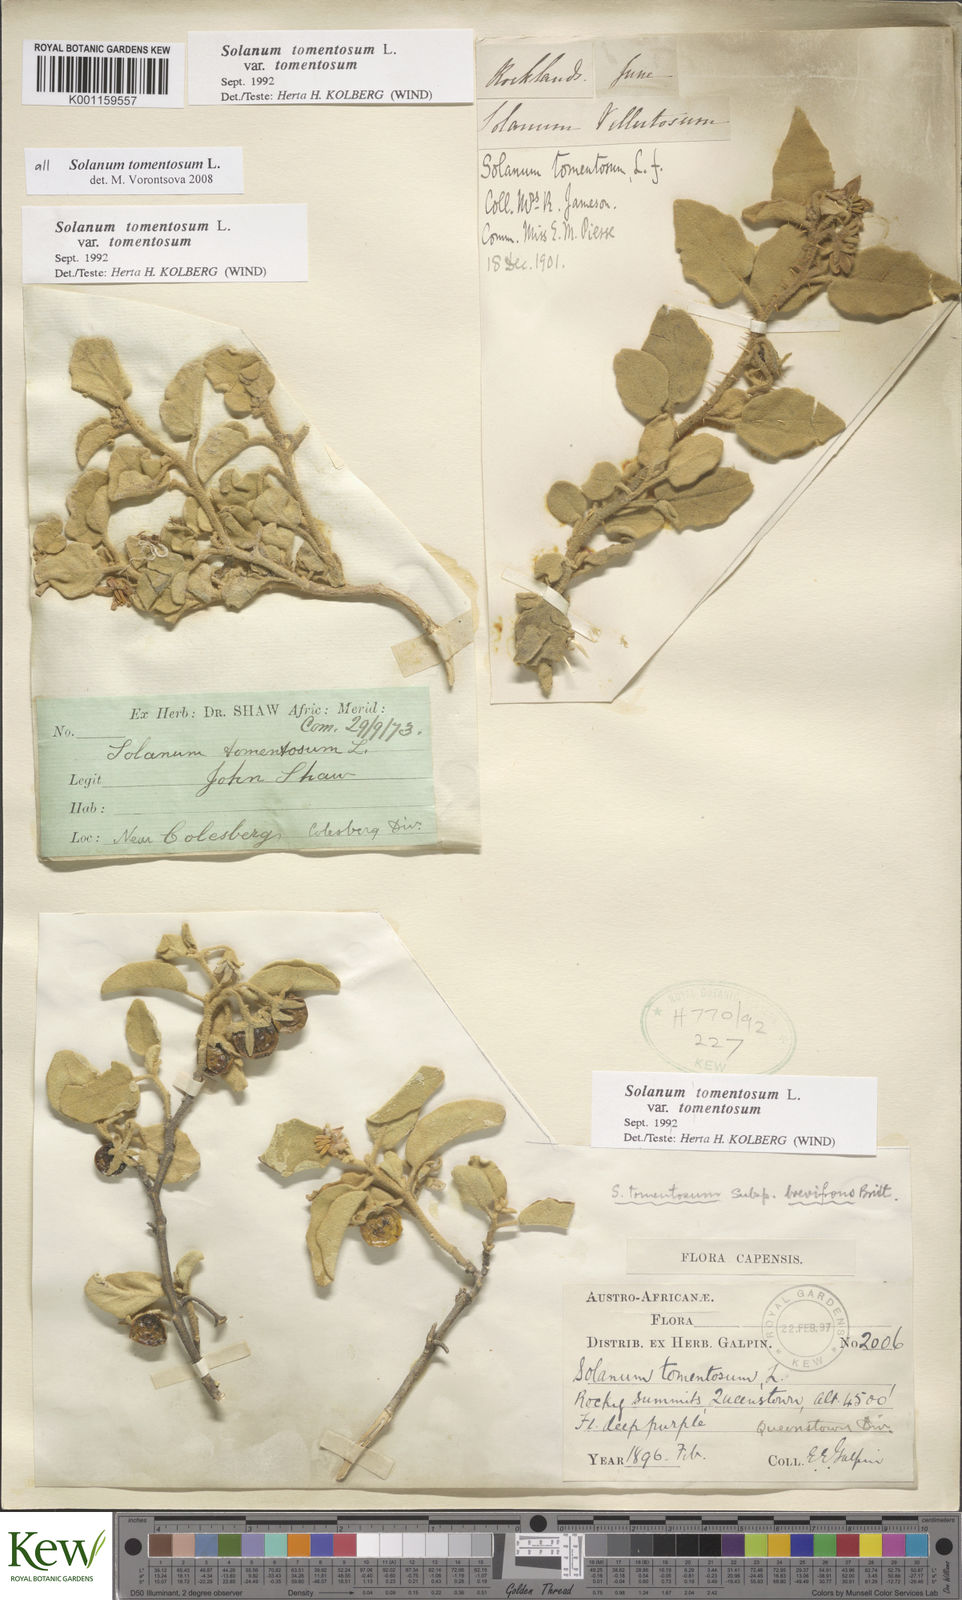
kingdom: Plantae
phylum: Tracheophyta
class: Magnoliopsida
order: Solanales
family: Solanaceae
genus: Solanum
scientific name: Solanum tomentosum
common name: Wild aubergine
